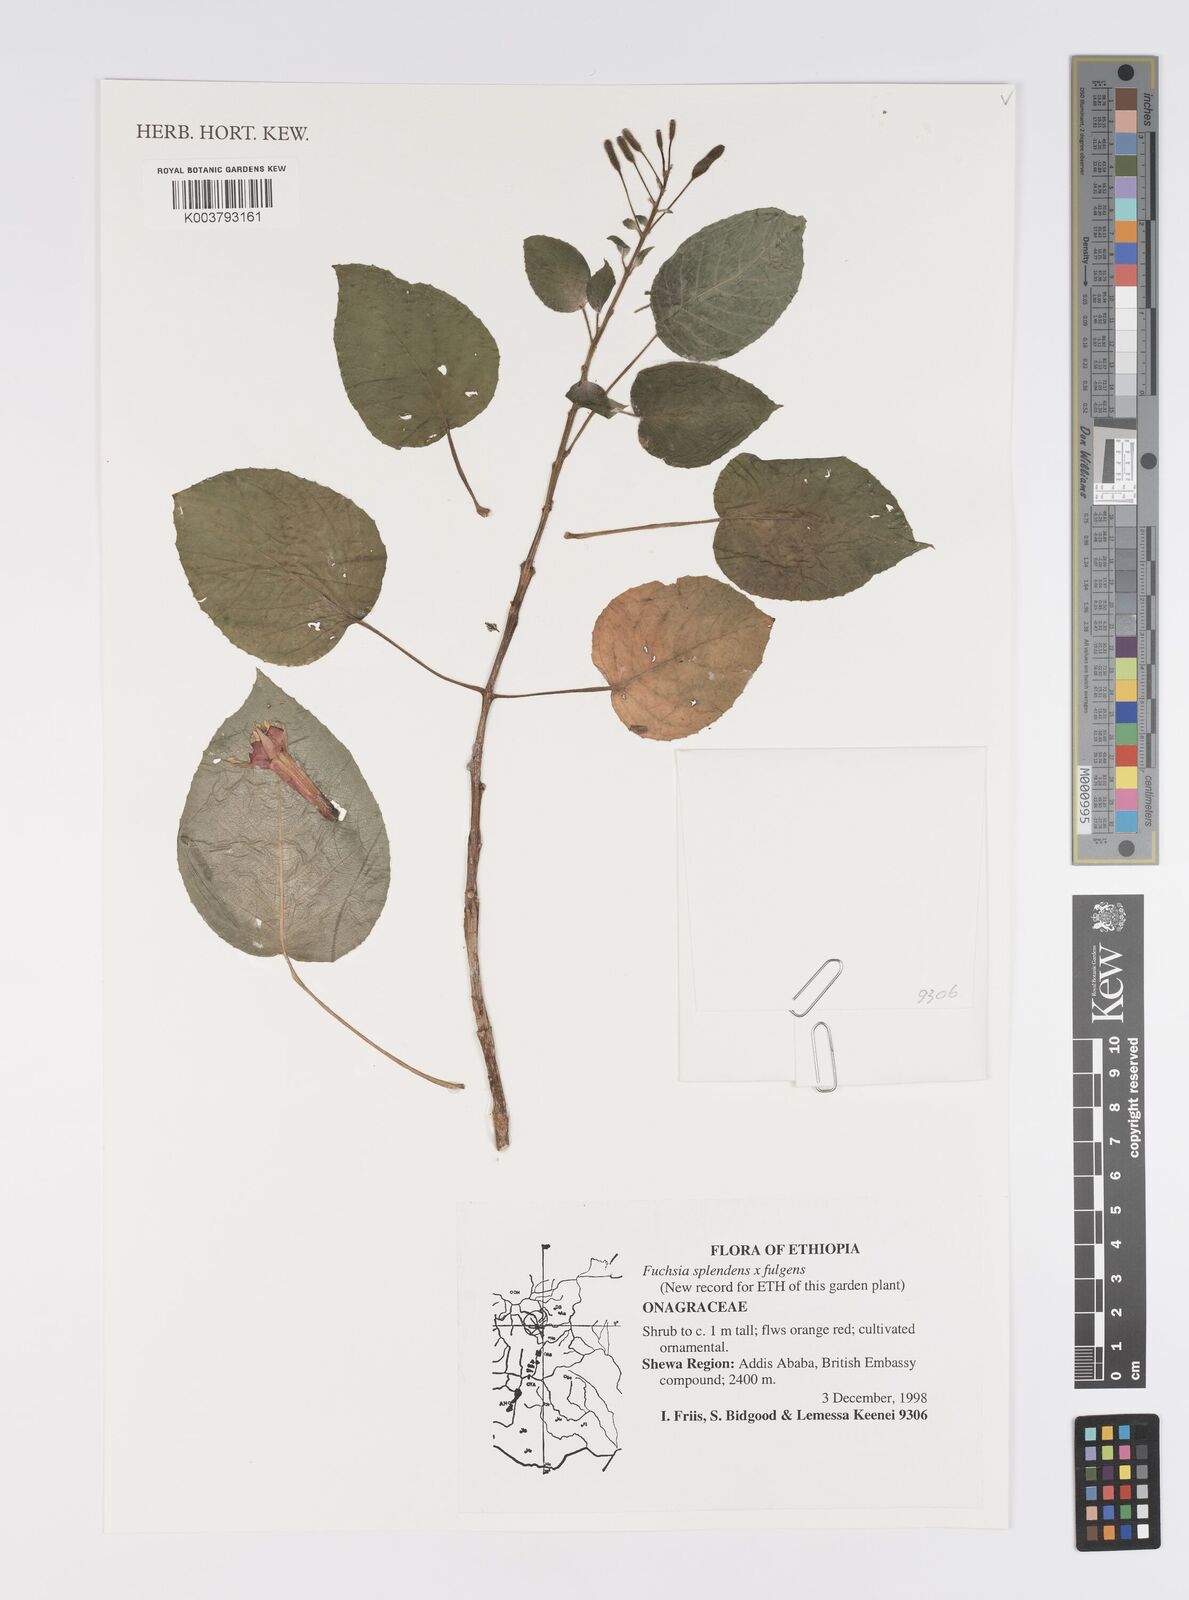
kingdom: Plantae
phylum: Tracheophyta
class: Magnoliopsida
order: Myrtales
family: Onagraceae
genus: Fuchsia
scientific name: Fuchsia splendens
